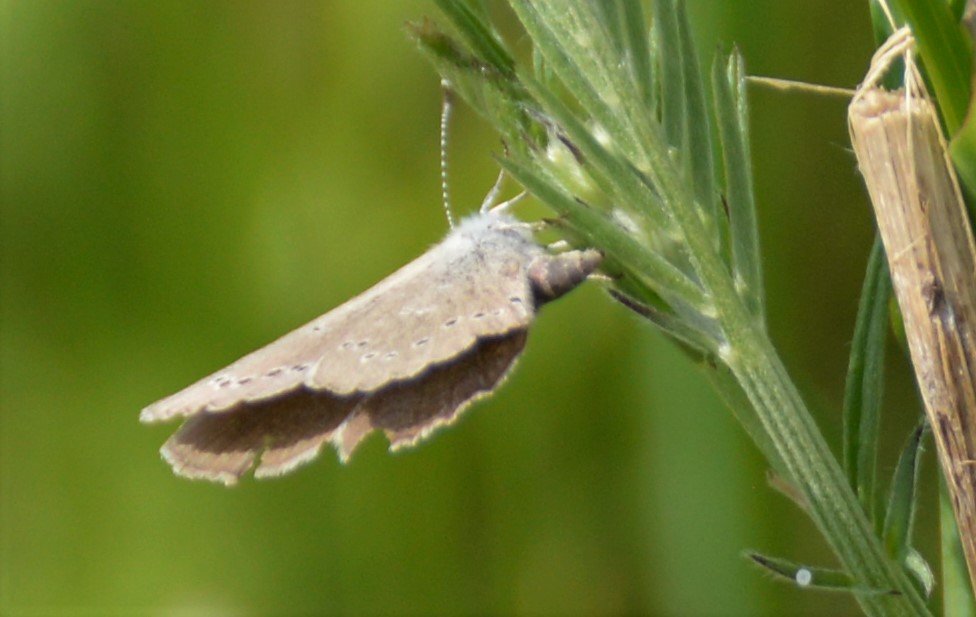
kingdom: Animalia
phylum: Arthropoda
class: Insecta
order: Lepidoptera
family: Lycaenidae
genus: Glaucopsyche
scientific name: Glaucopsyche lygdamus
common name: Silvery Blue
